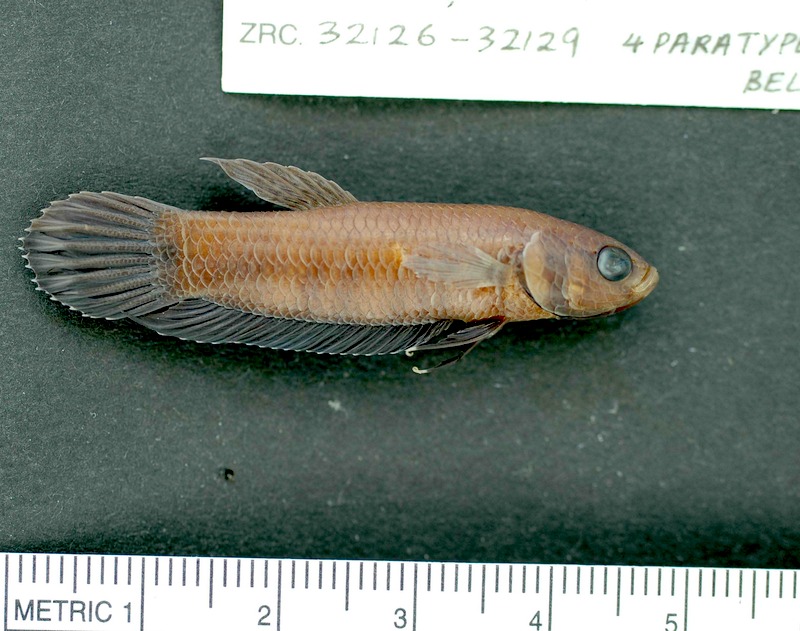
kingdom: Animalia
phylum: Chordata
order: Cypriniformes
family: Cyprinidae
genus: Chondrostoma
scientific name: Chondrostoma nasus
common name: Nase
